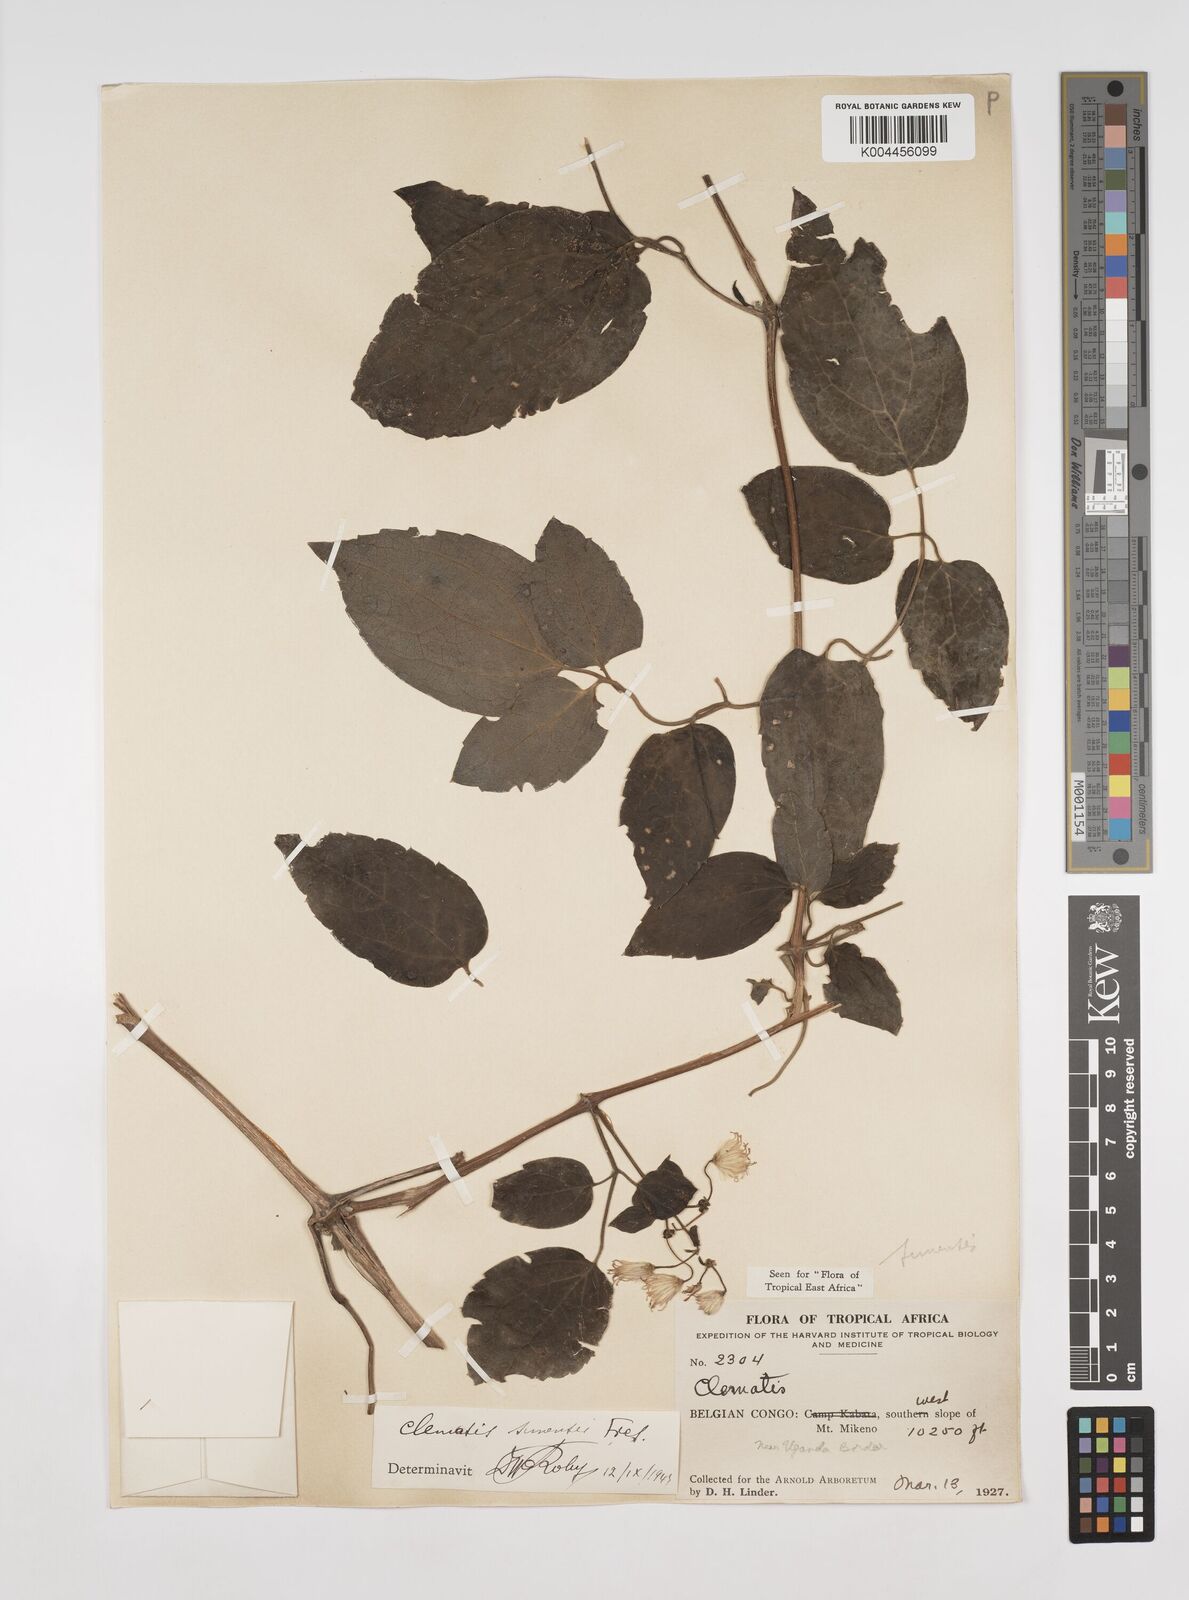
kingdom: Plantae
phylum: Tracheophyta
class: Magnoliopsida
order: Ranunculales
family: Ranunculaceae
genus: Clematis
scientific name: Clematis simensis
